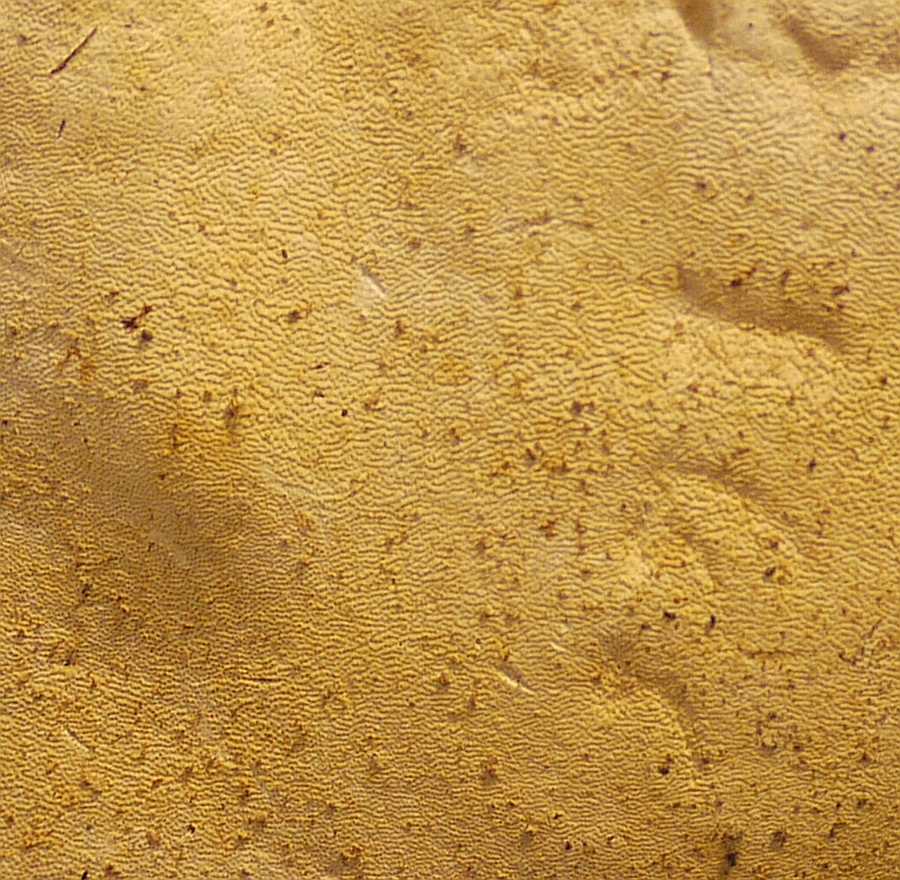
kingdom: Fungi
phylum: Basidiomycota
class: Agaricomycetes
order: Polyporales
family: Polyporaceae
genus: Ganoderma
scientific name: Ganoderma adspersum
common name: grov lakporesvamp
